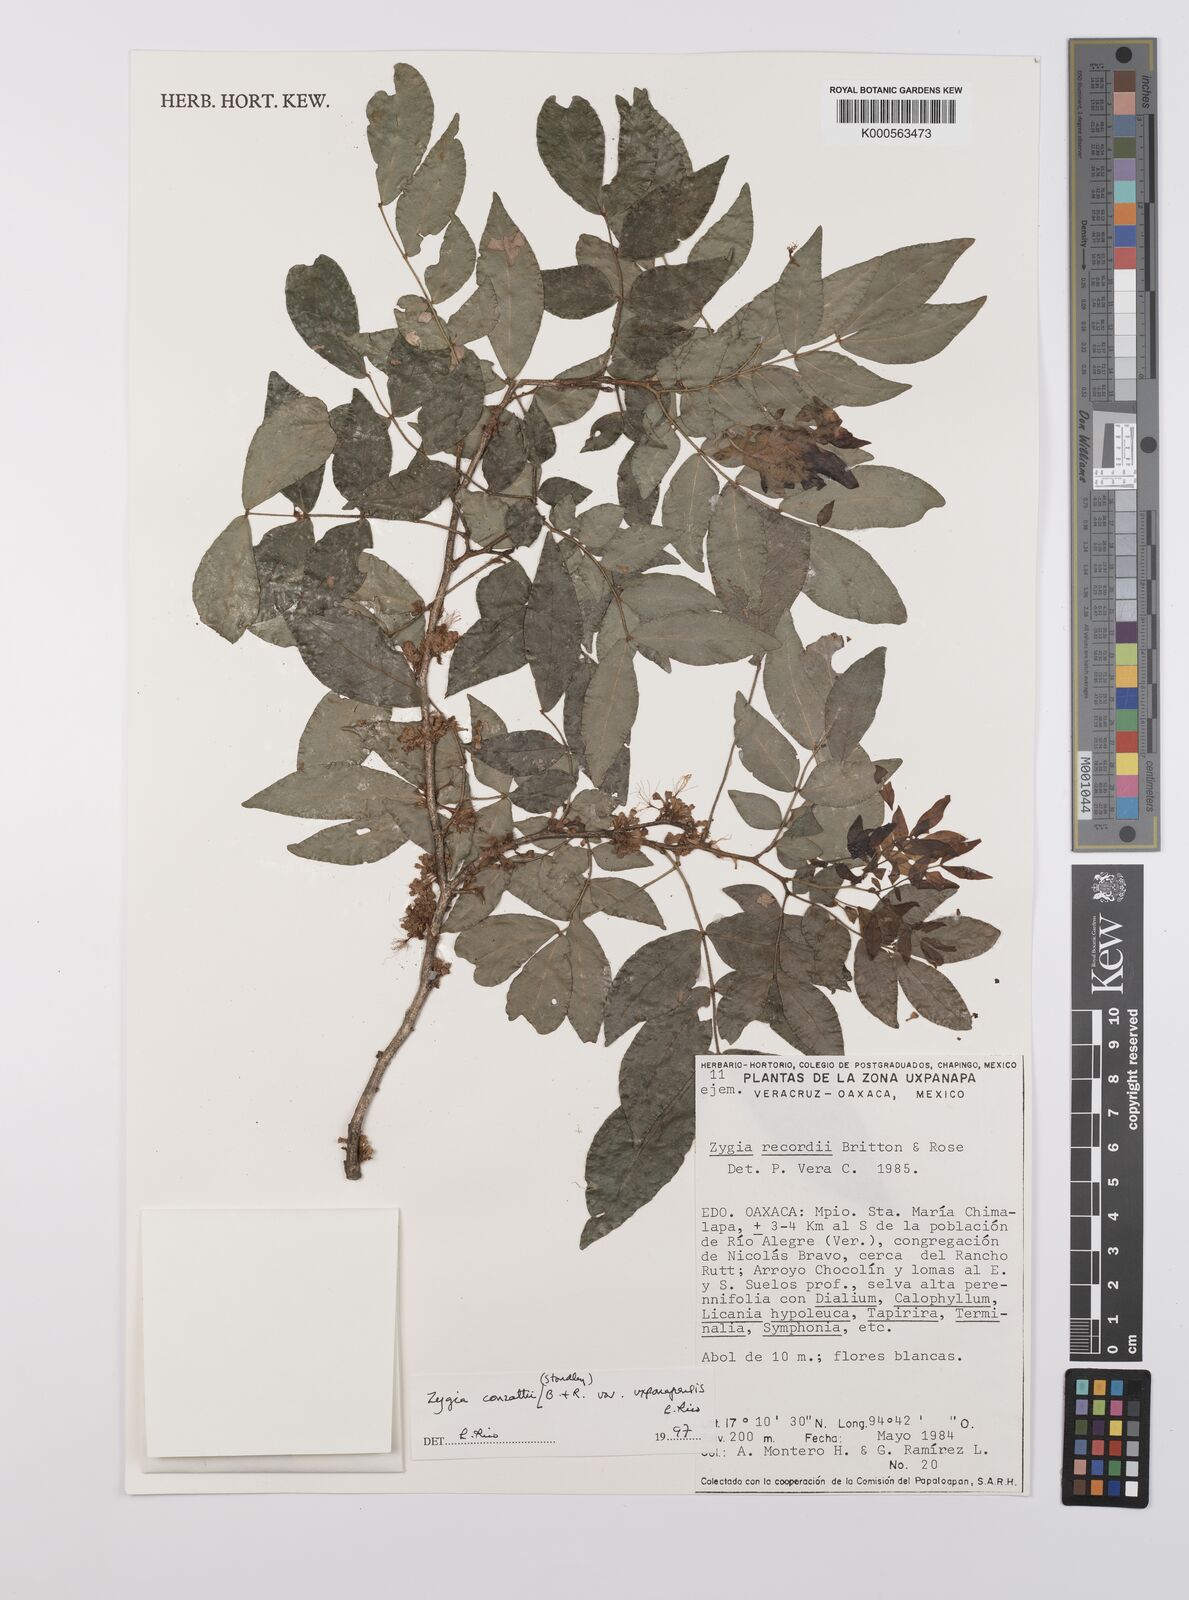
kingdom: Plantae
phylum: Tracheophyta
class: Magnoliopsida
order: Fabales
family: Fabaceae
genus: Zygia
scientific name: Zygia conzattii
